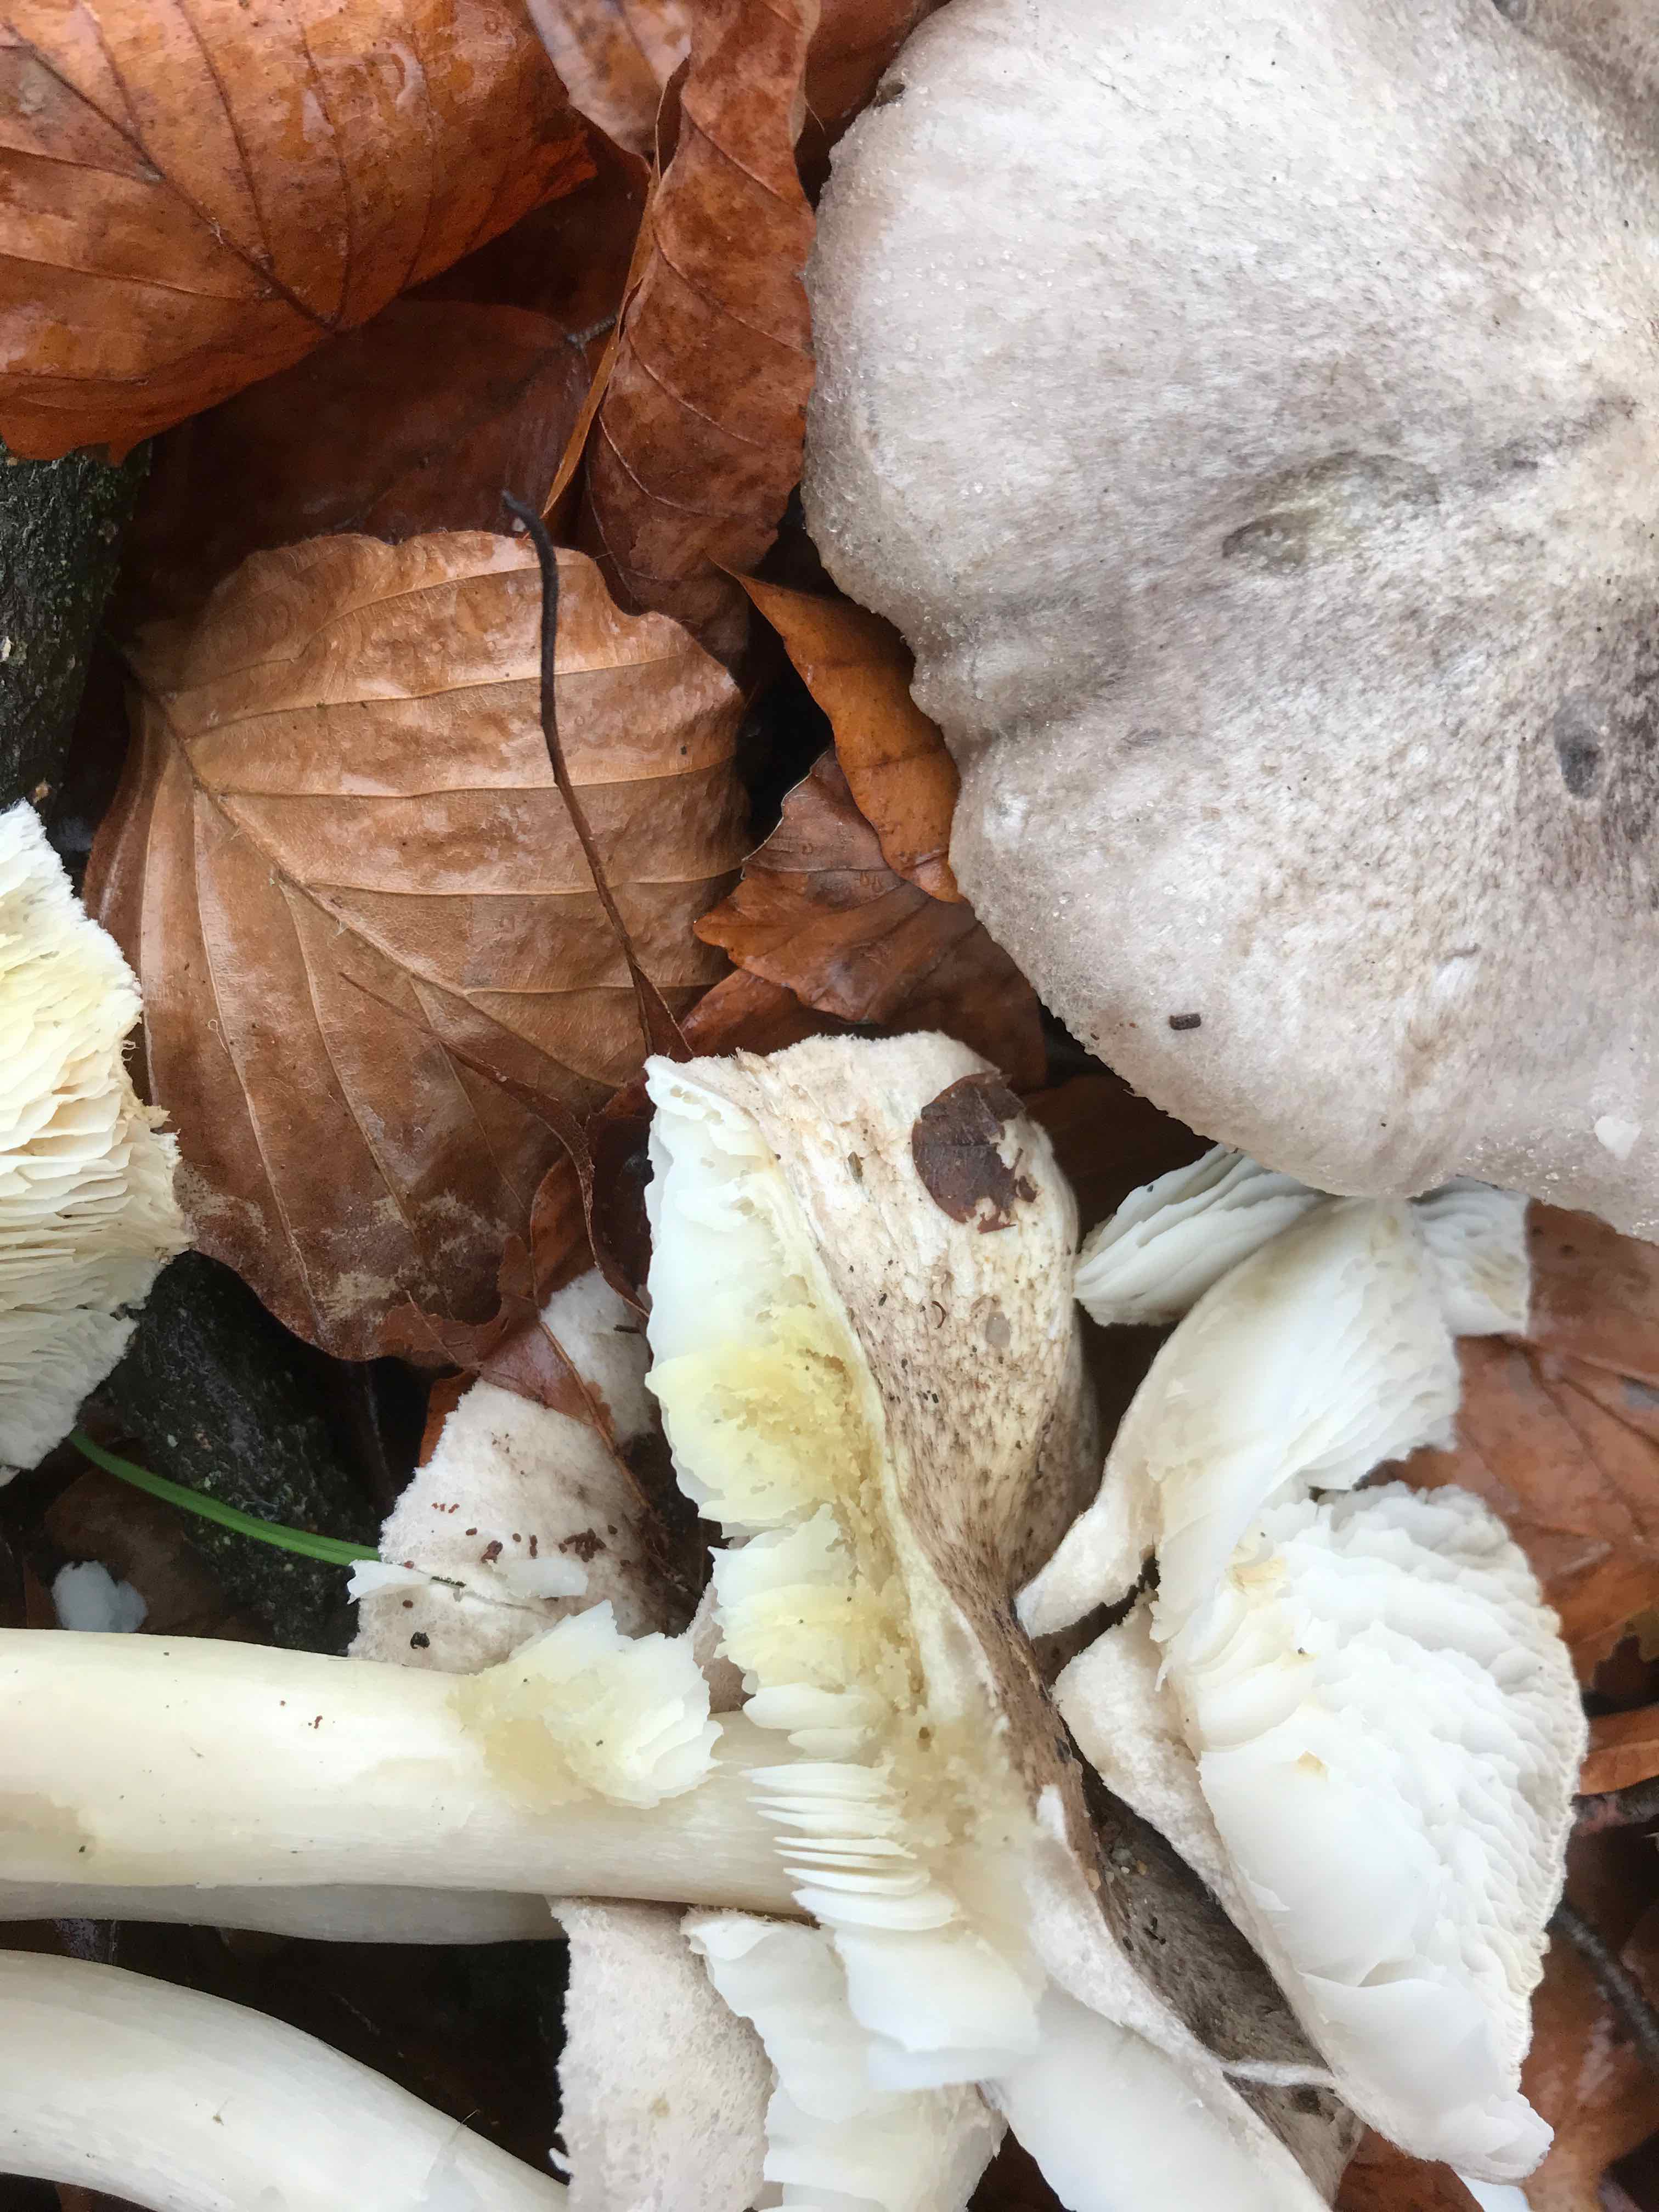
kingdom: Fungi
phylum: Basidiomycota
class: Agaricomycetes
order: Agaricales
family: Tricholomataceae
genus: Tricholoma
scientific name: Tricholoma scalpturatum
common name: gulplettet ridderhat
